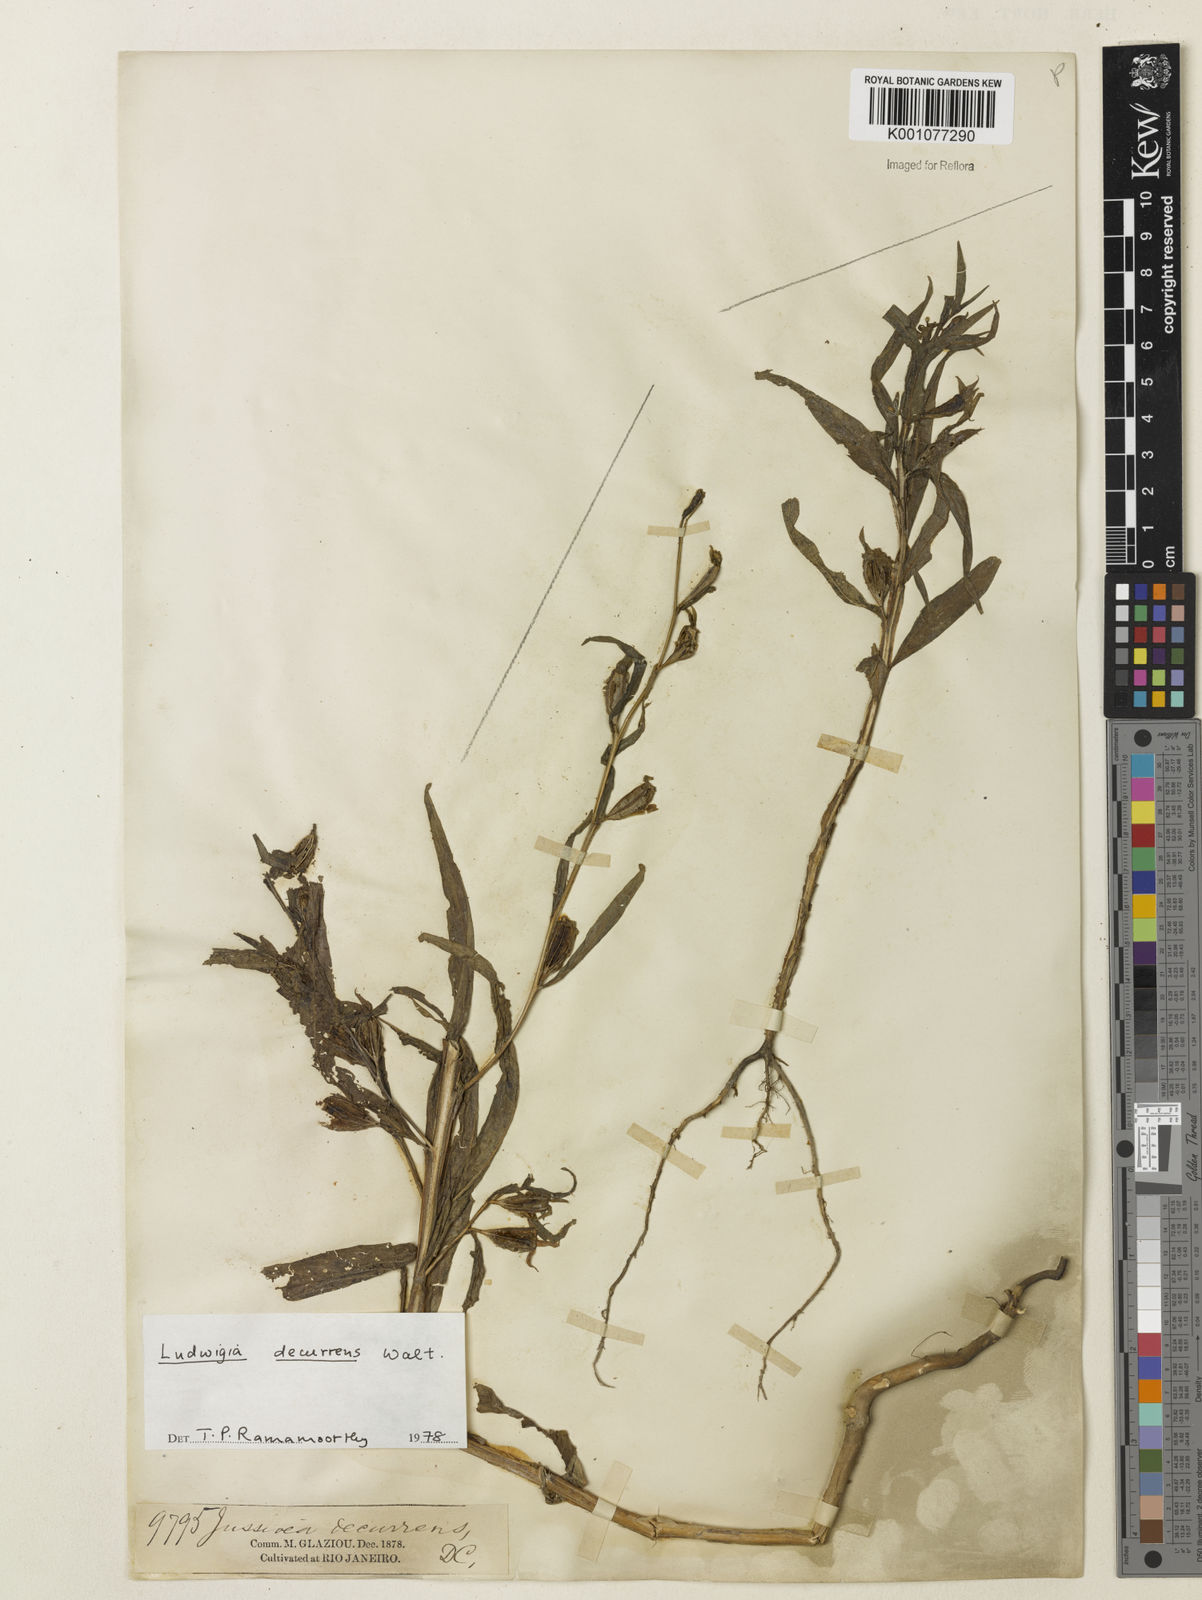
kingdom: Plantae
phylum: Tracheophyta
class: Magnoliopsida
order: Myrtales
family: Onagraceae
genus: Ludwigia
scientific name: Ludwigia decurrens
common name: Winged water-primrose
